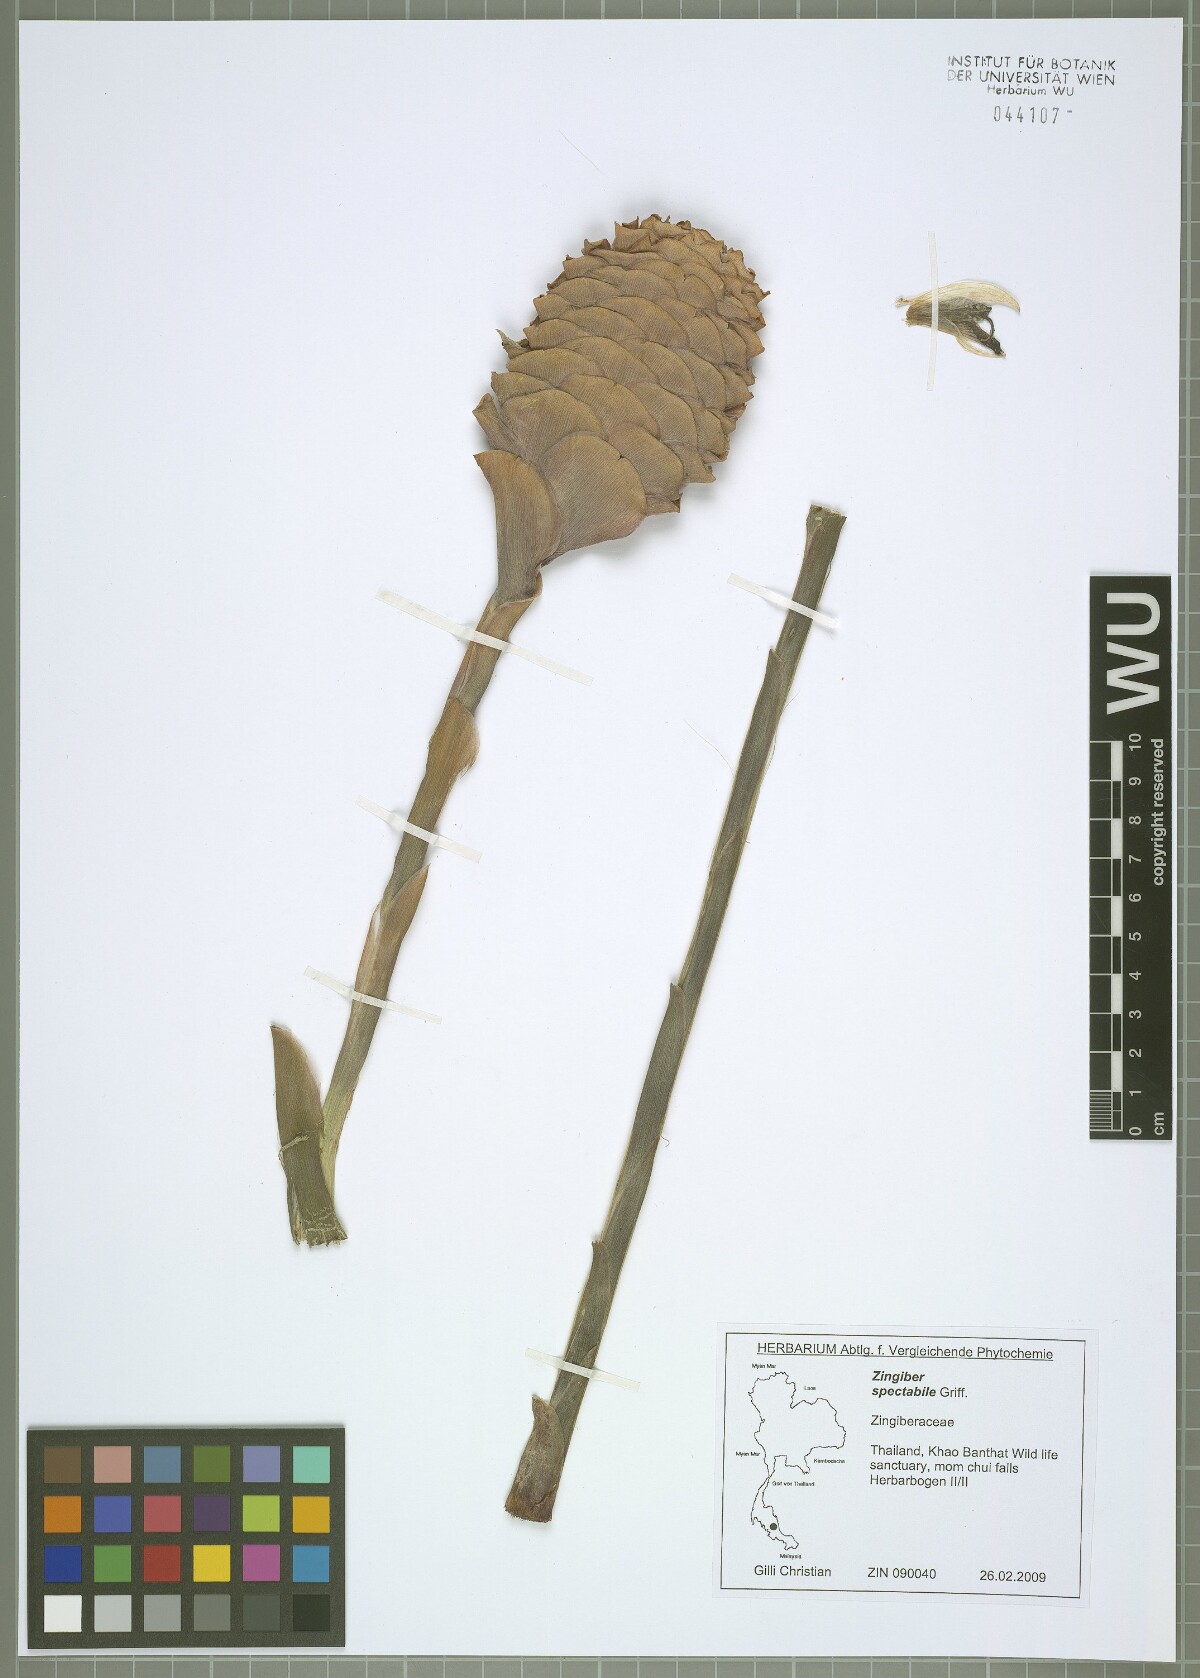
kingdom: Plantae
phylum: Tracheophyta
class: Liliopsida
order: Zingiberales
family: Zingiberaceae
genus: Zingiber
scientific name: Zingiber spectabile
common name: Beehive ginger
